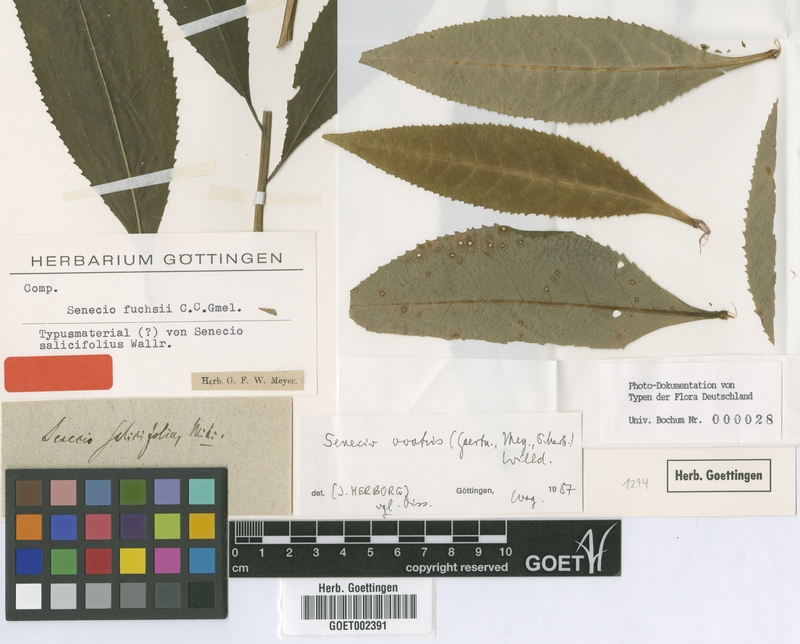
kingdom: Plantae
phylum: Tracheophyta
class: Magnoliopsida
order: Asterales
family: Asteraceae
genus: Senecio
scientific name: Senecio ovatus
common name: Wood ragwort
